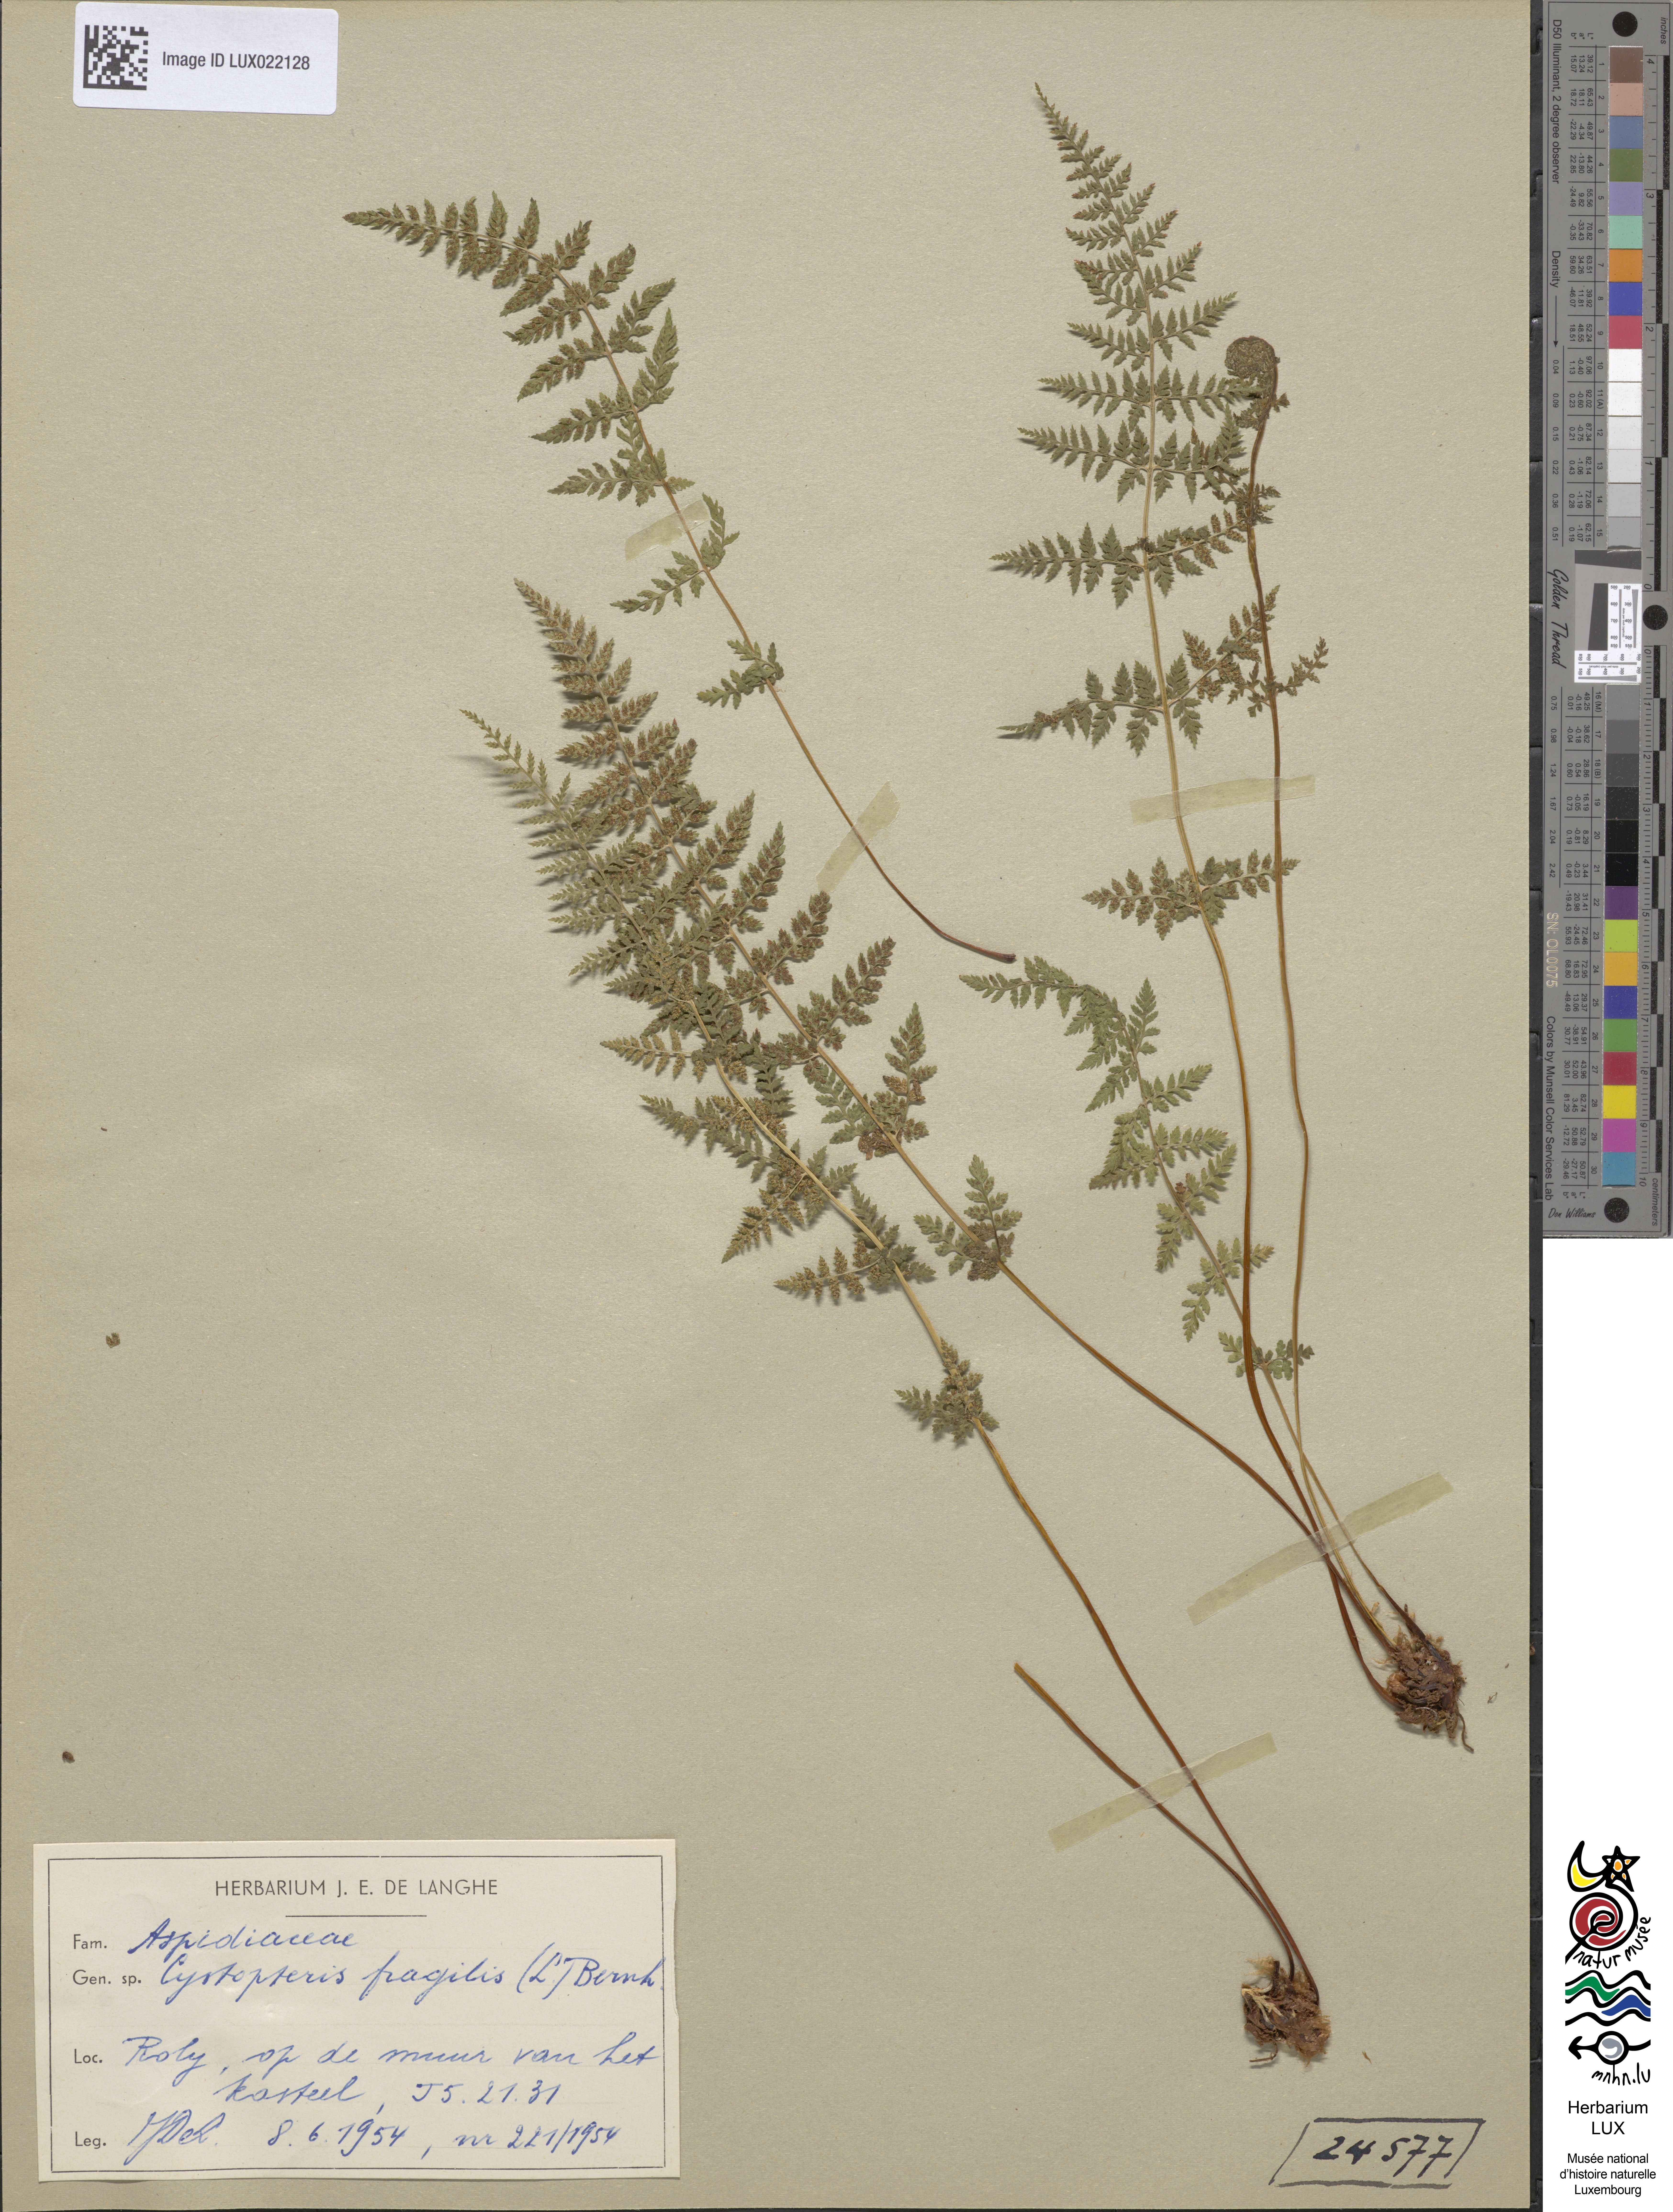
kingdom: Plantae
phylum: Tracheophyta
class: Polypodiopsida
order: Polypodiales
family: Cystopteridaceae
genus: Cystopteris
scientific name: Cystopteris fragilis
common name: Brittle bladder fern
